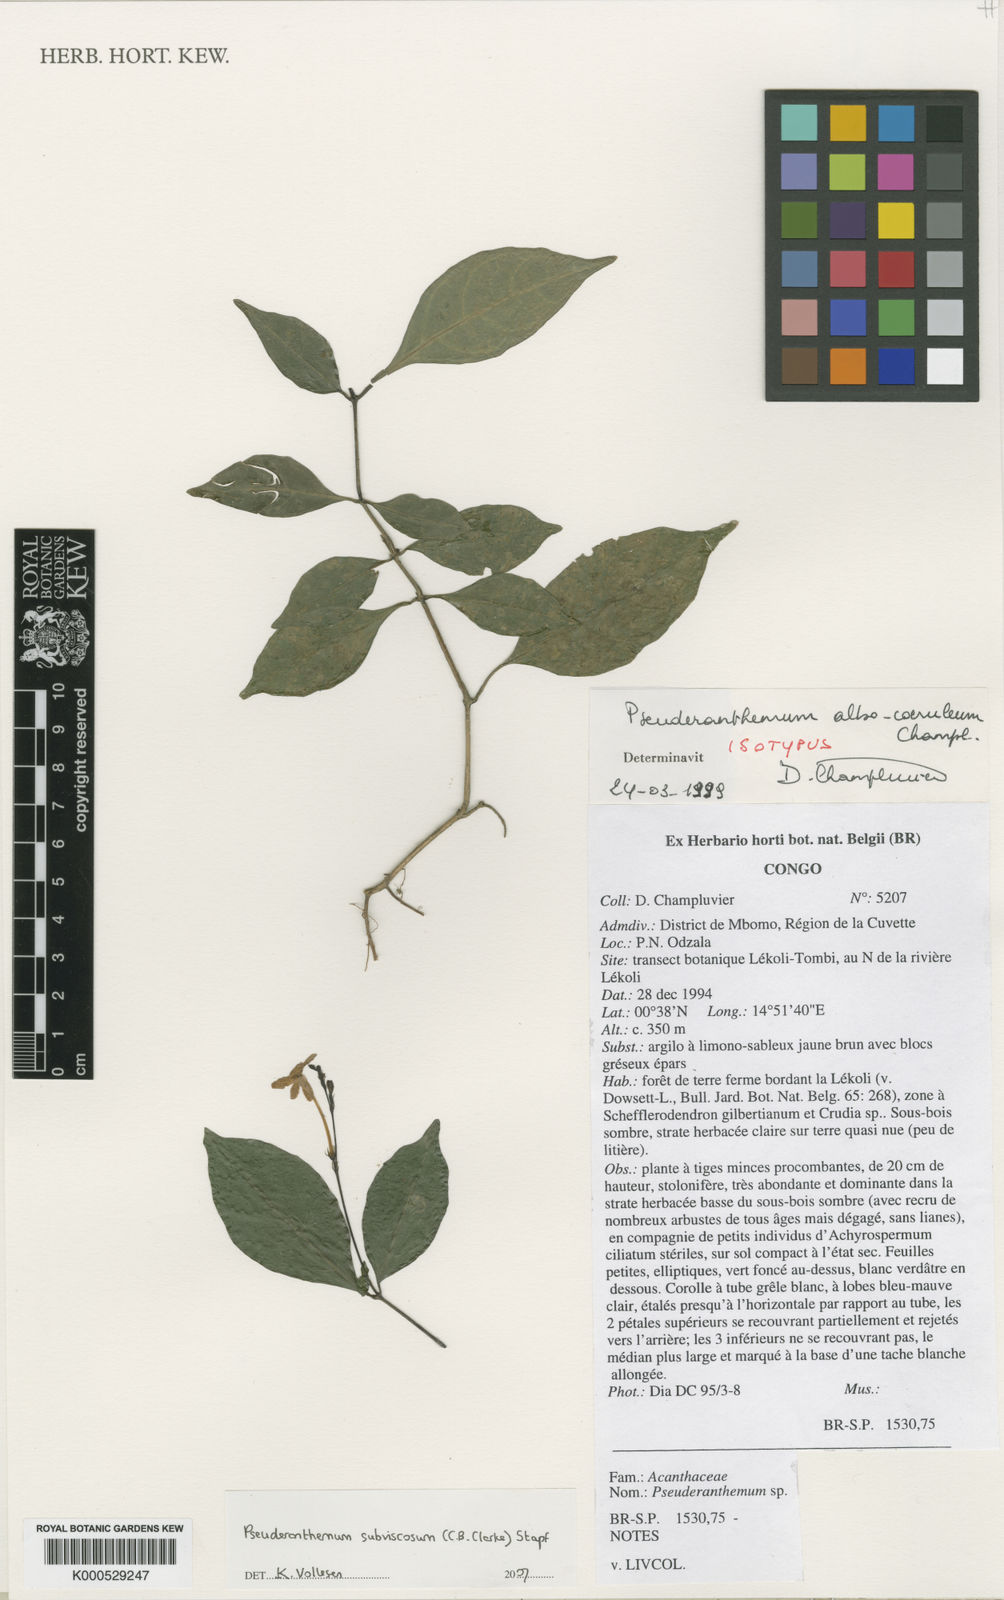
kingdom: Plantae
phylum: Tracheophyta
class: Magnoliopsida
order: Lamiales
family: Acanthaceae
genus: Pseuderanthemum
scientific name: Pseuderanthemum subviscosum
